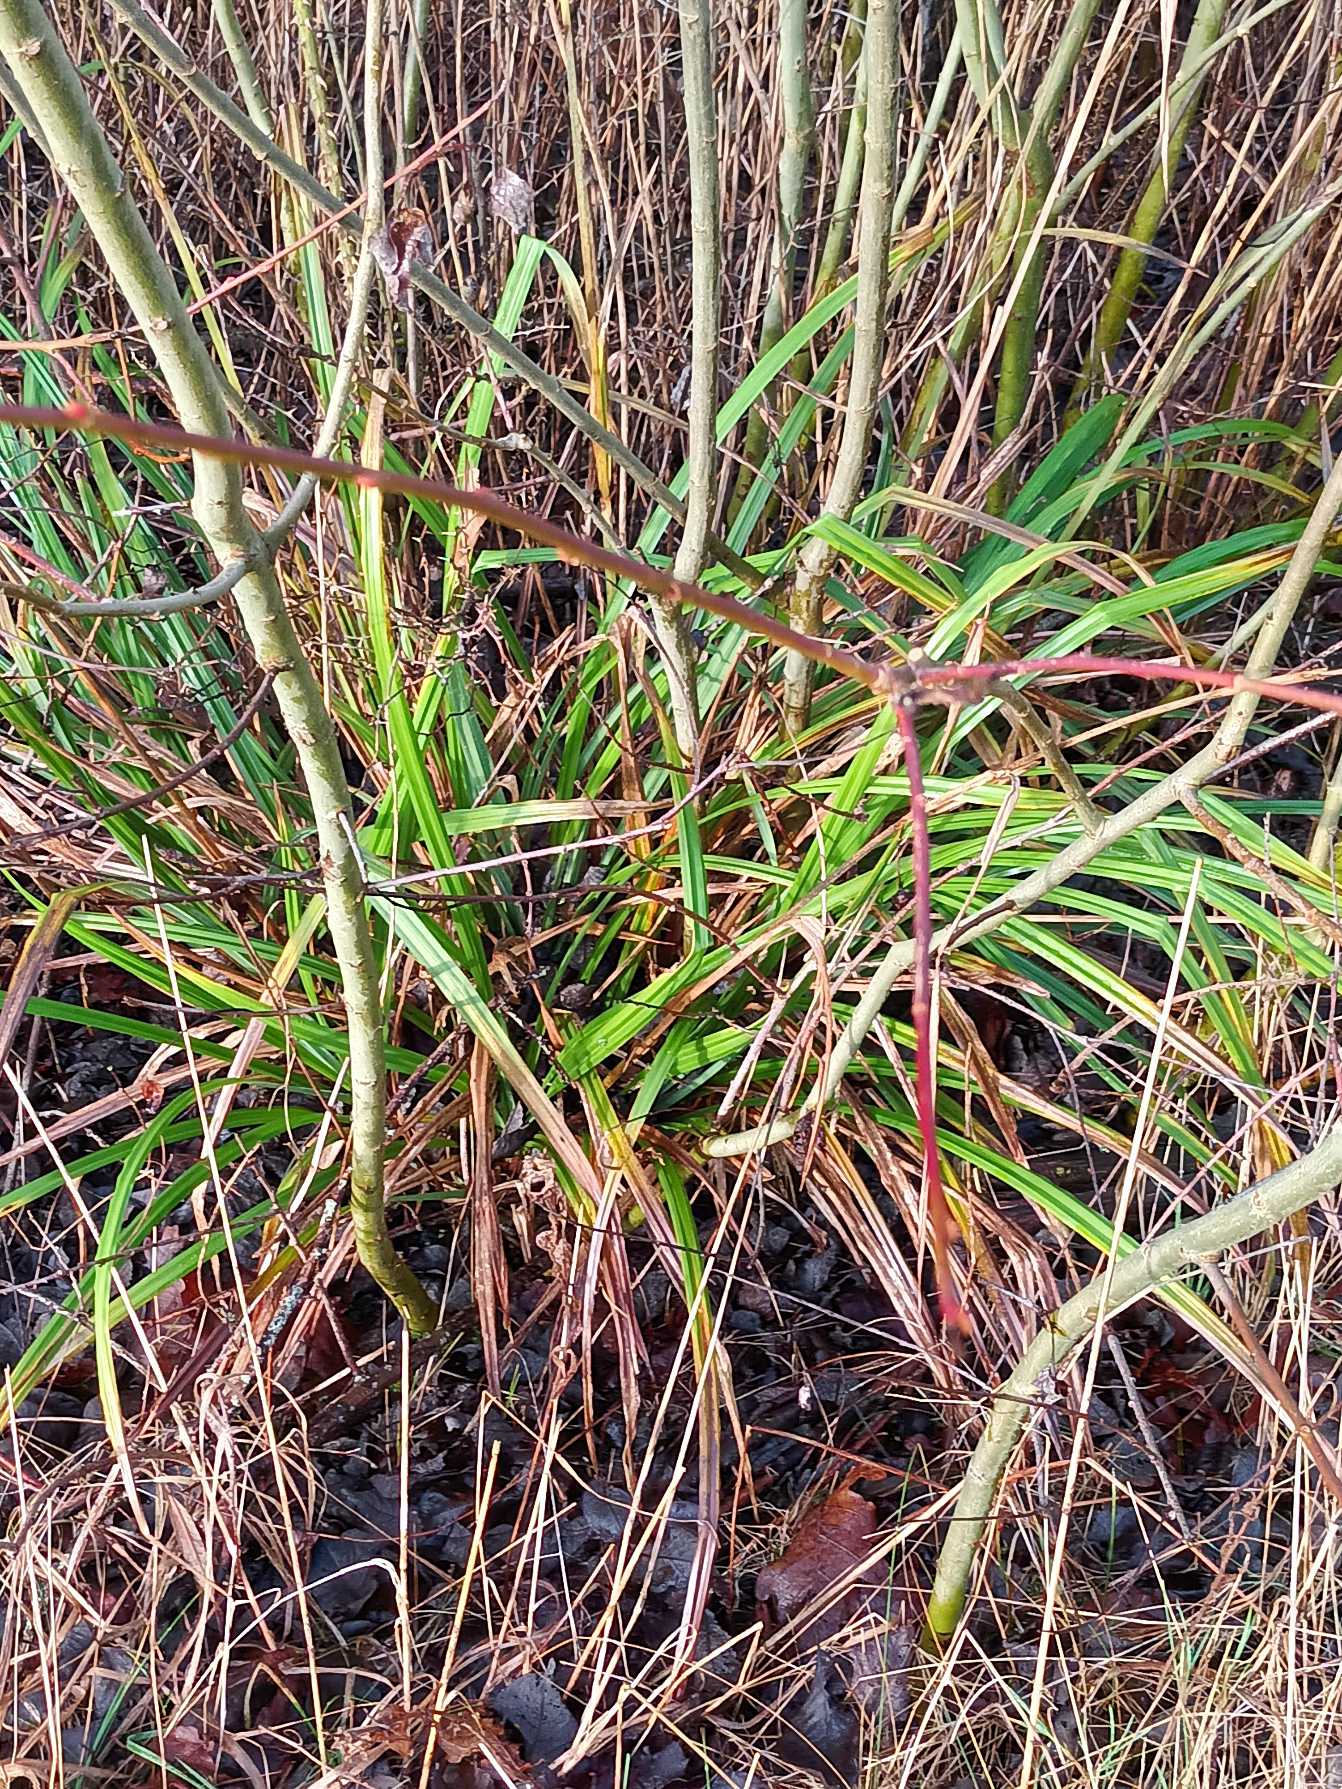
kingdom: Plantae
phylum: Tracheophyta
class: Liliopsida
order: Poales
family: Cyperaceae
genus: Carex
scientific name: Carex pendula
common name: Kæmpe-star
